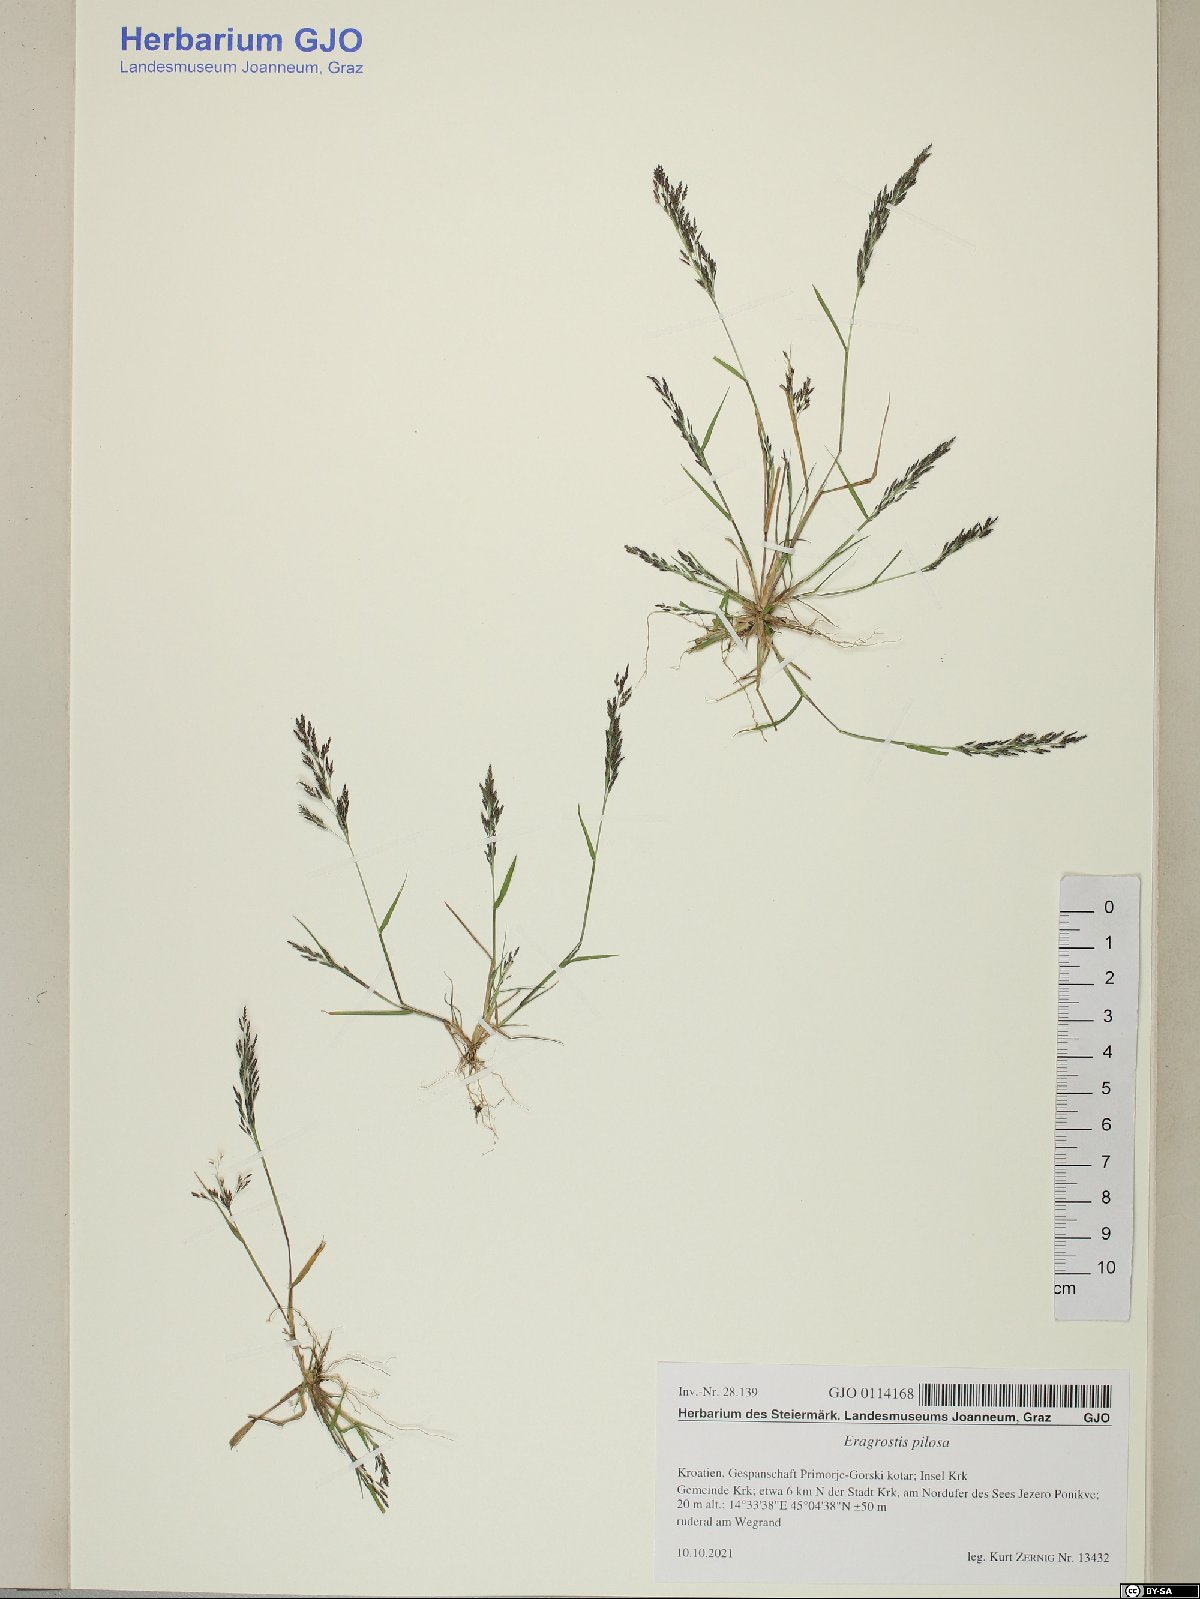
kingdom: Plantae
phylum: Tracheophyta
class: Liliopsida
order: Poales
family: Poaceae
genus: Eragrostis
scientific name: Eragrostis pilosa
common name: Indian lovegrass
